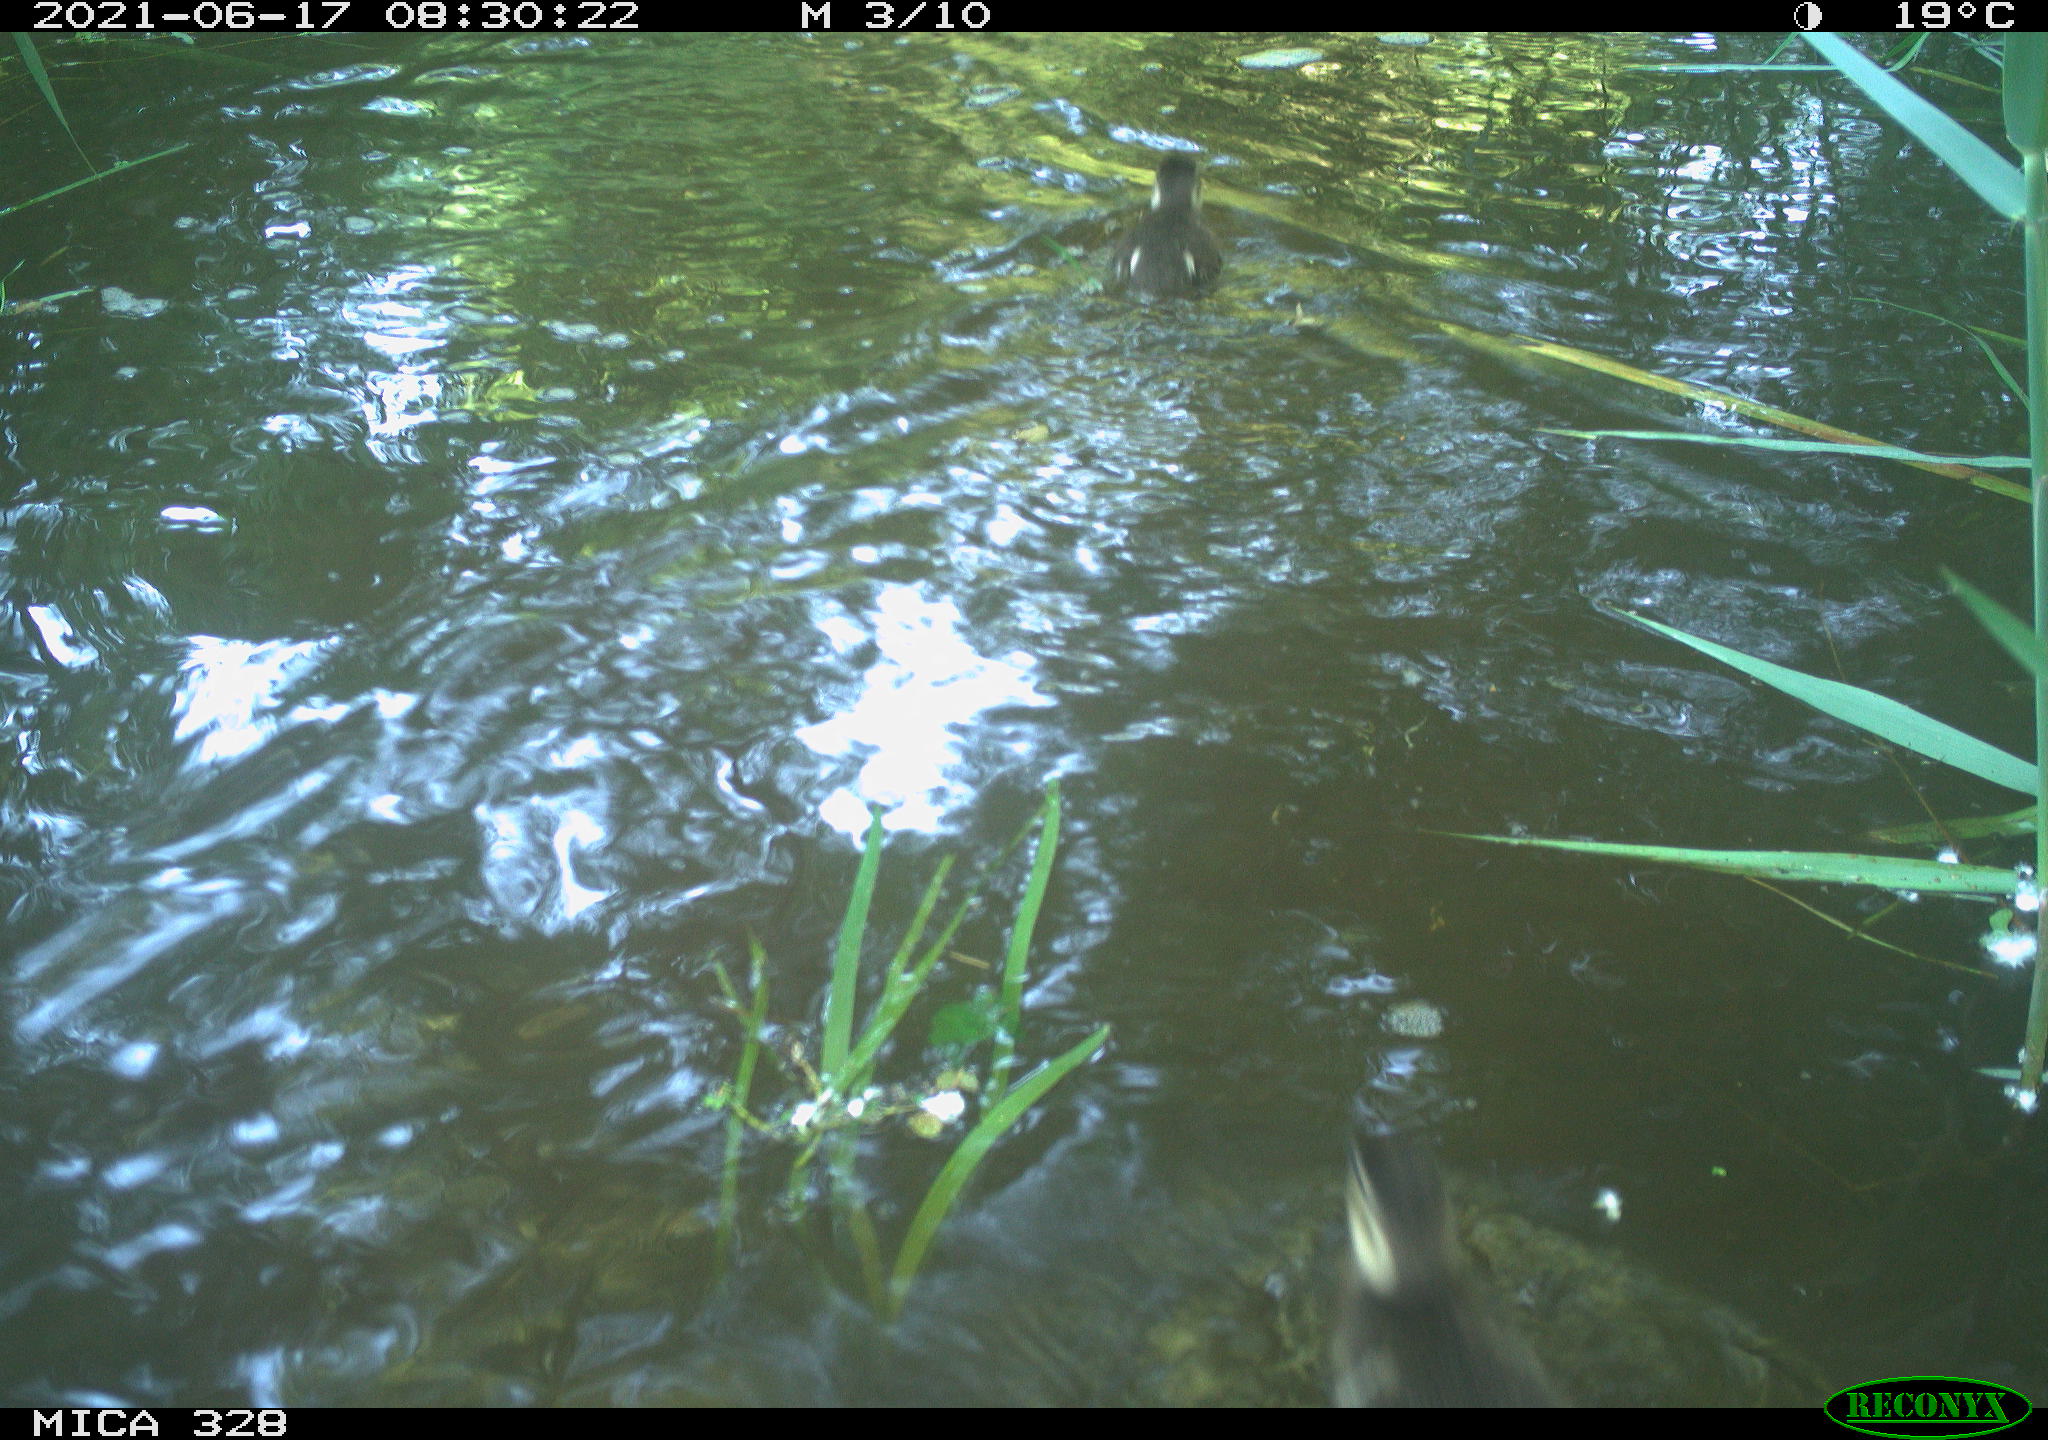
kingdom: Animalia
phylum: Chordata
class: Aves
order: Anseriformes
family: Anatidae
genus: Aix
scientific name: Aix galericulata
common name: Mandarin duck
